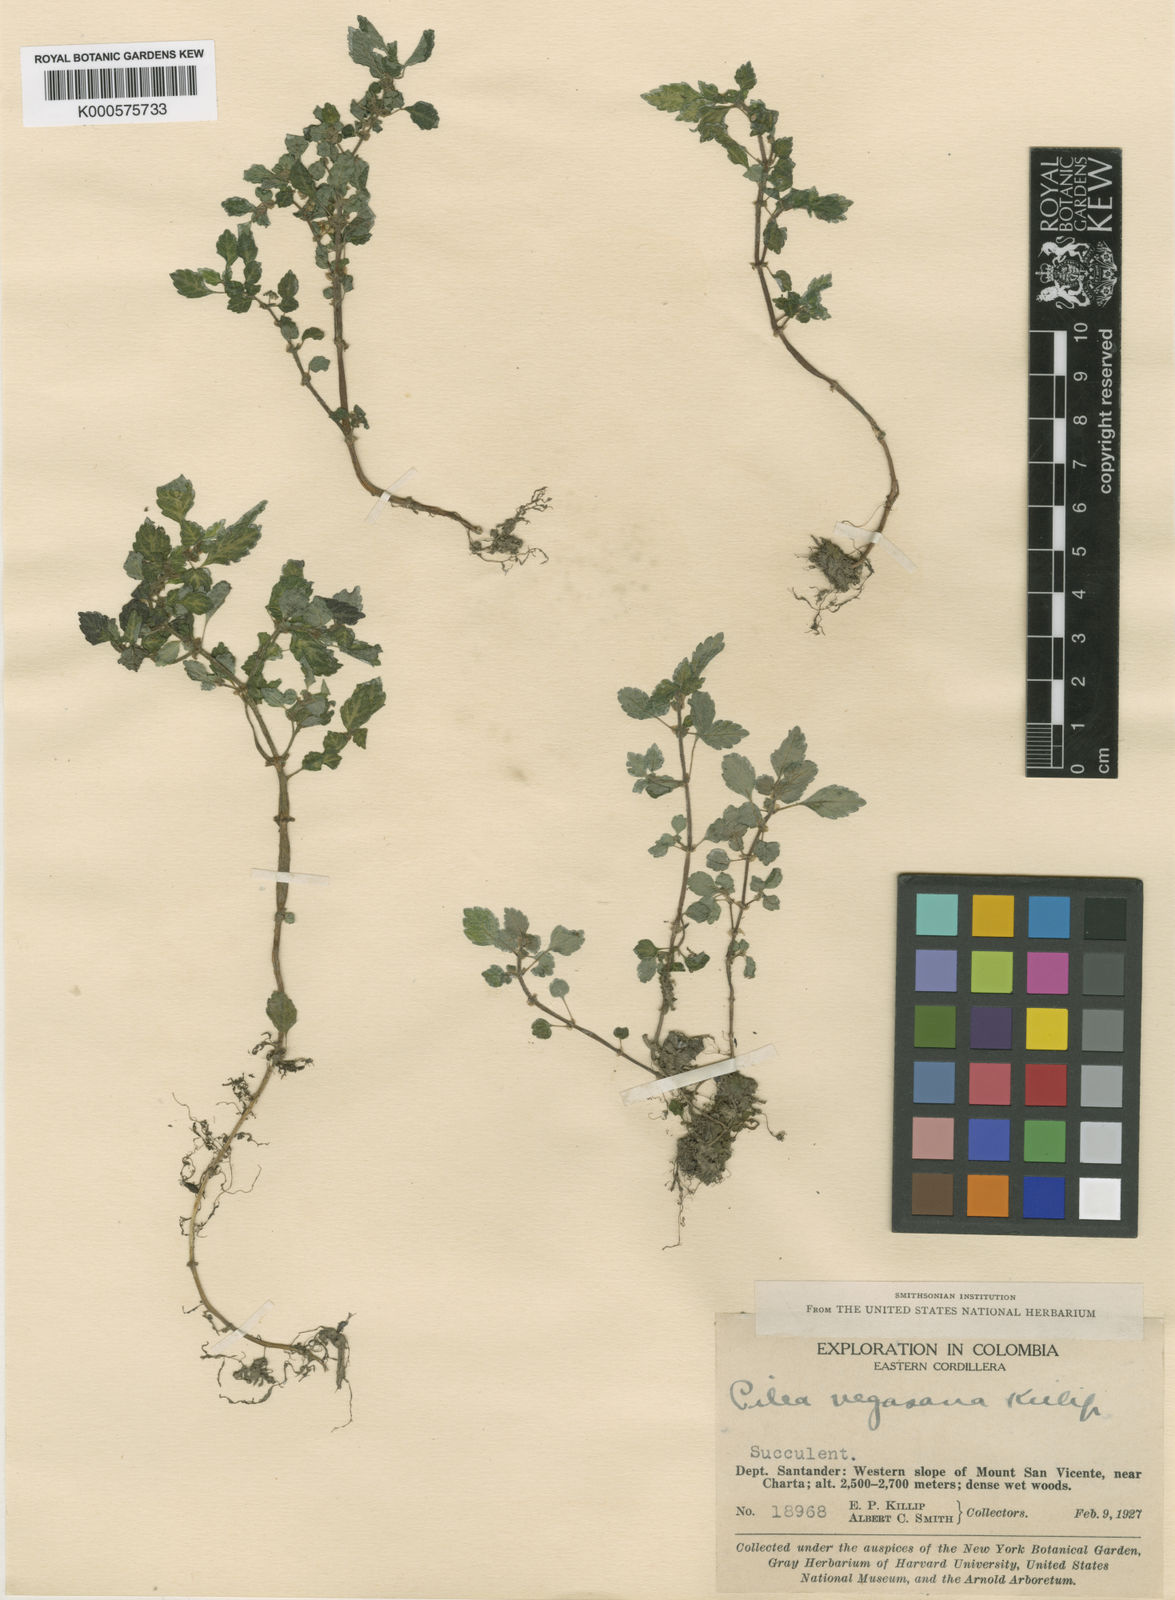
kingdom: Plantae
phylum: Tracheophyta
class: Magnoliopsida
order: Rosales
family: Urticaceae
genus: Pilea
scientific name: Pilea vegasana
